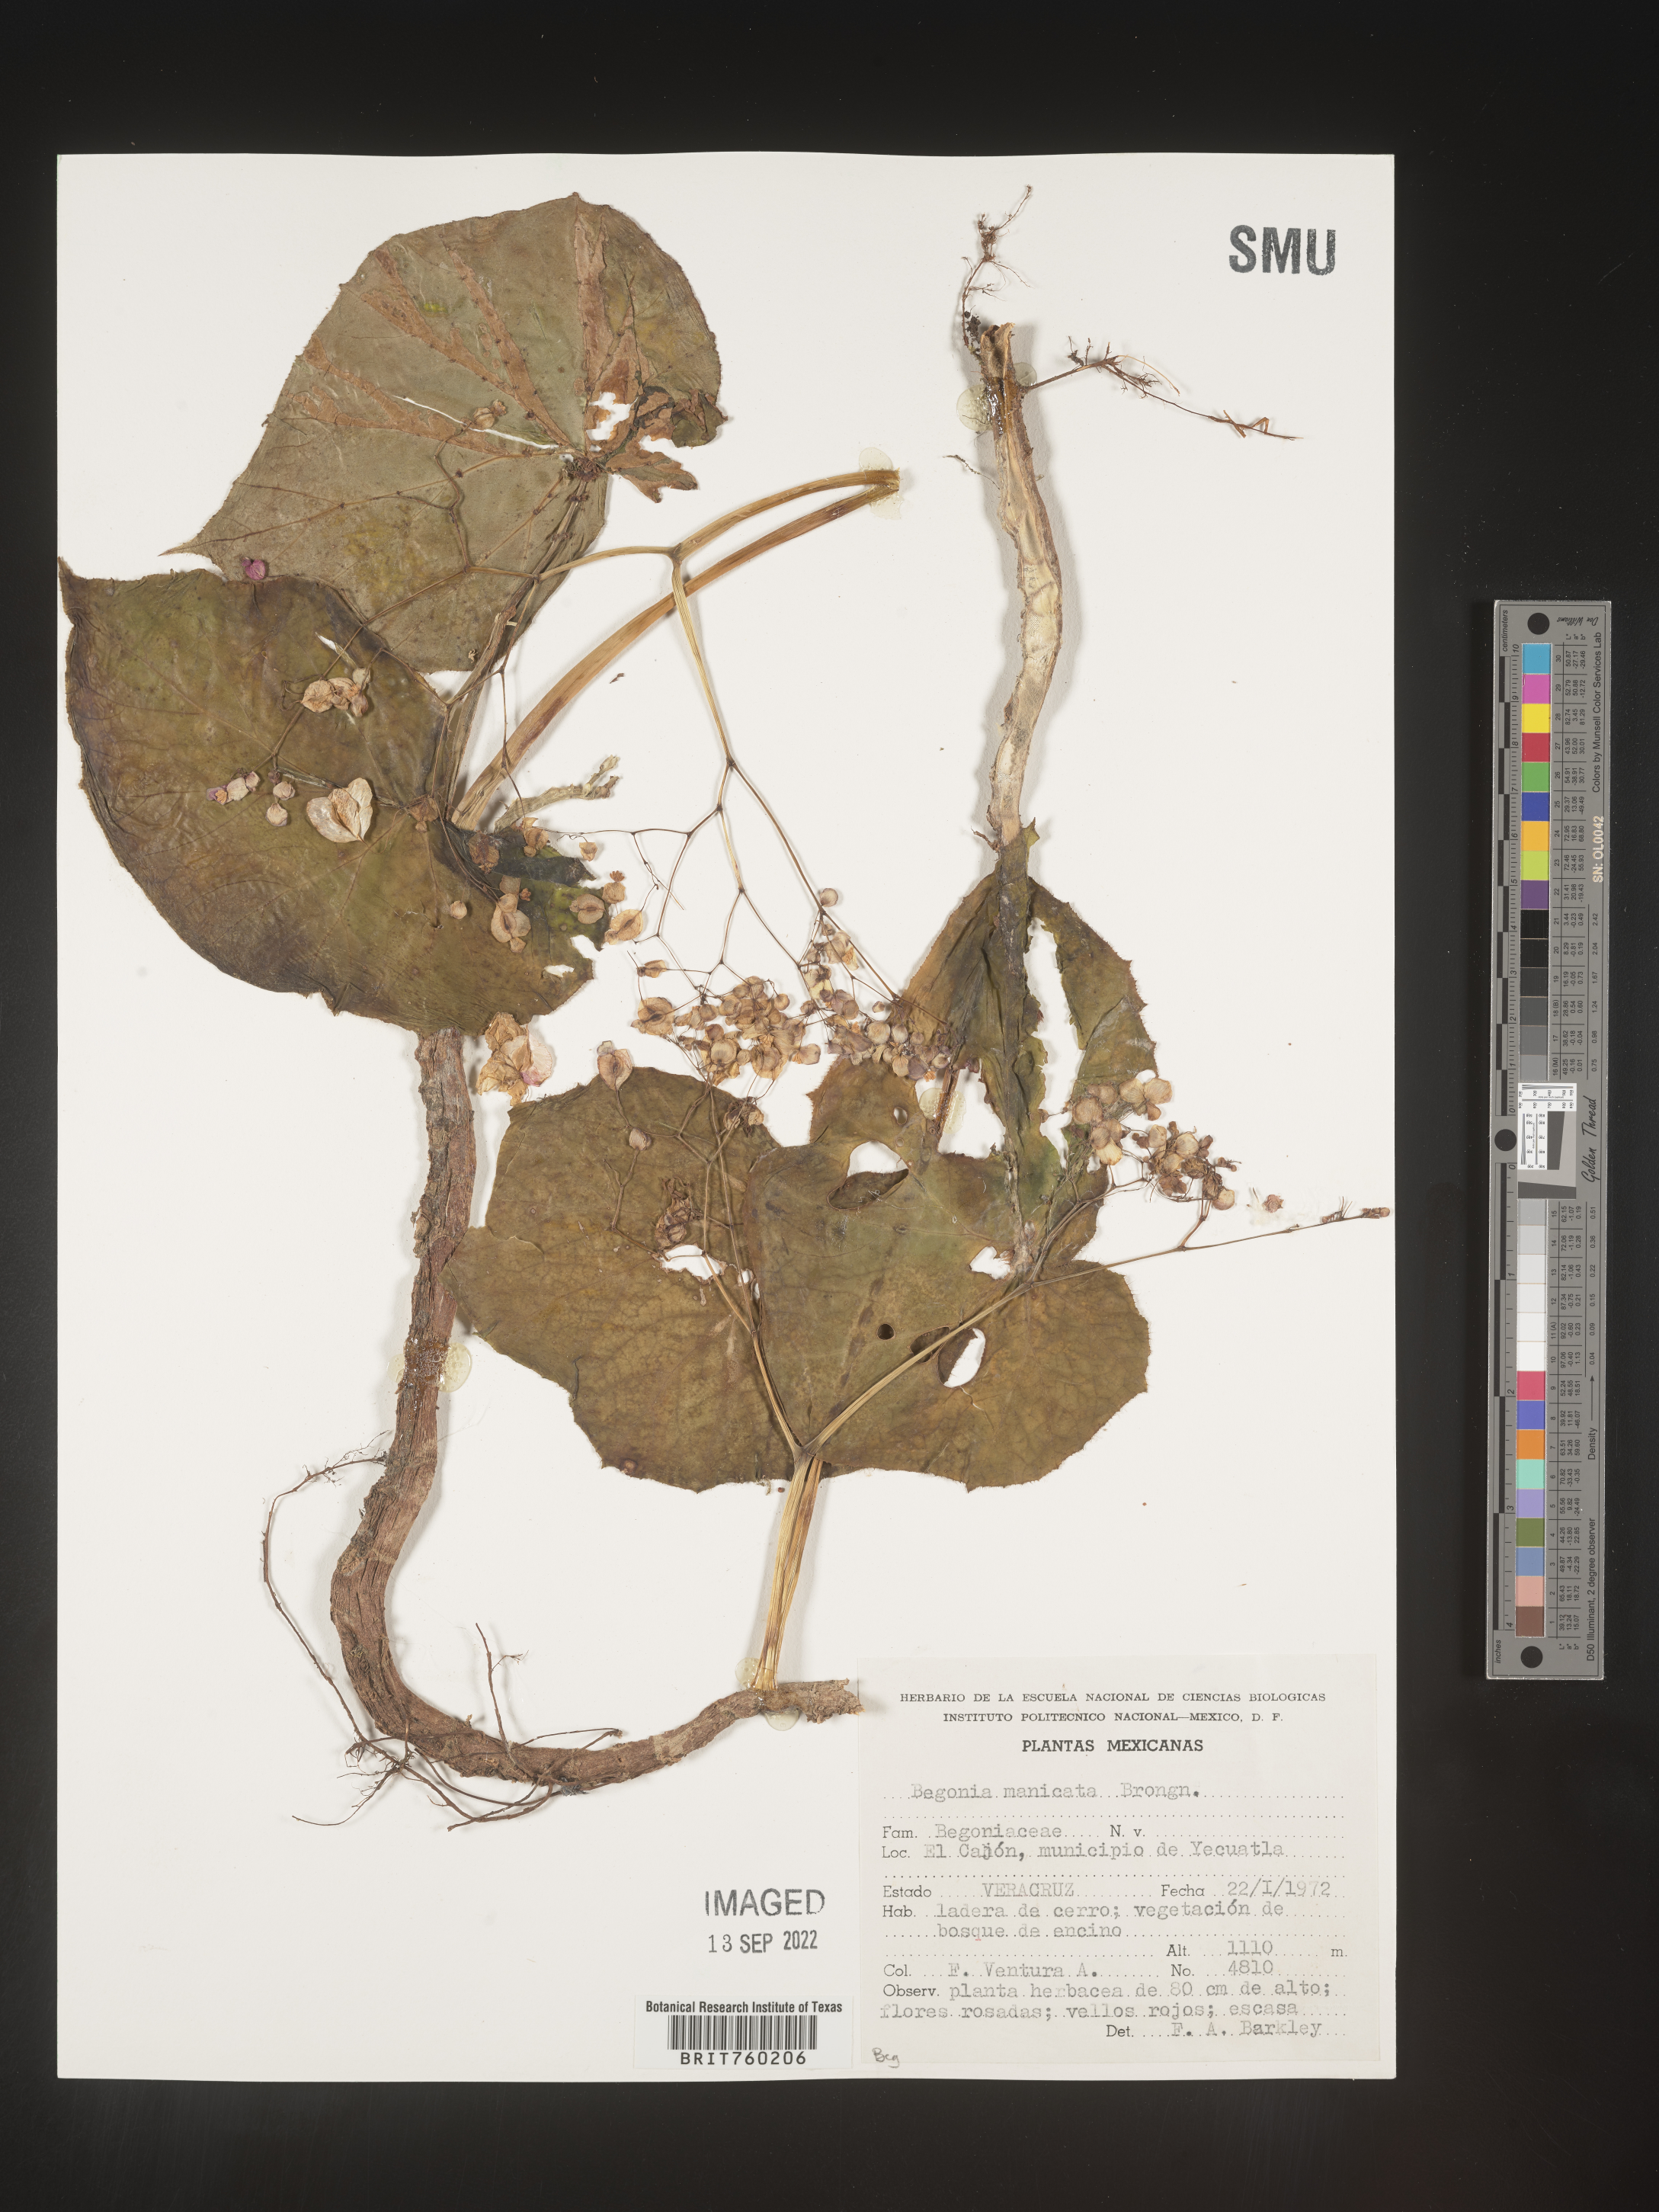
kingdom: Plantae
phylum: Tracheophyta
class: Magnoliopsida
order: Cucurbitales
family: Begoniaceae
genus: Begonia
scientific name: Begonia
